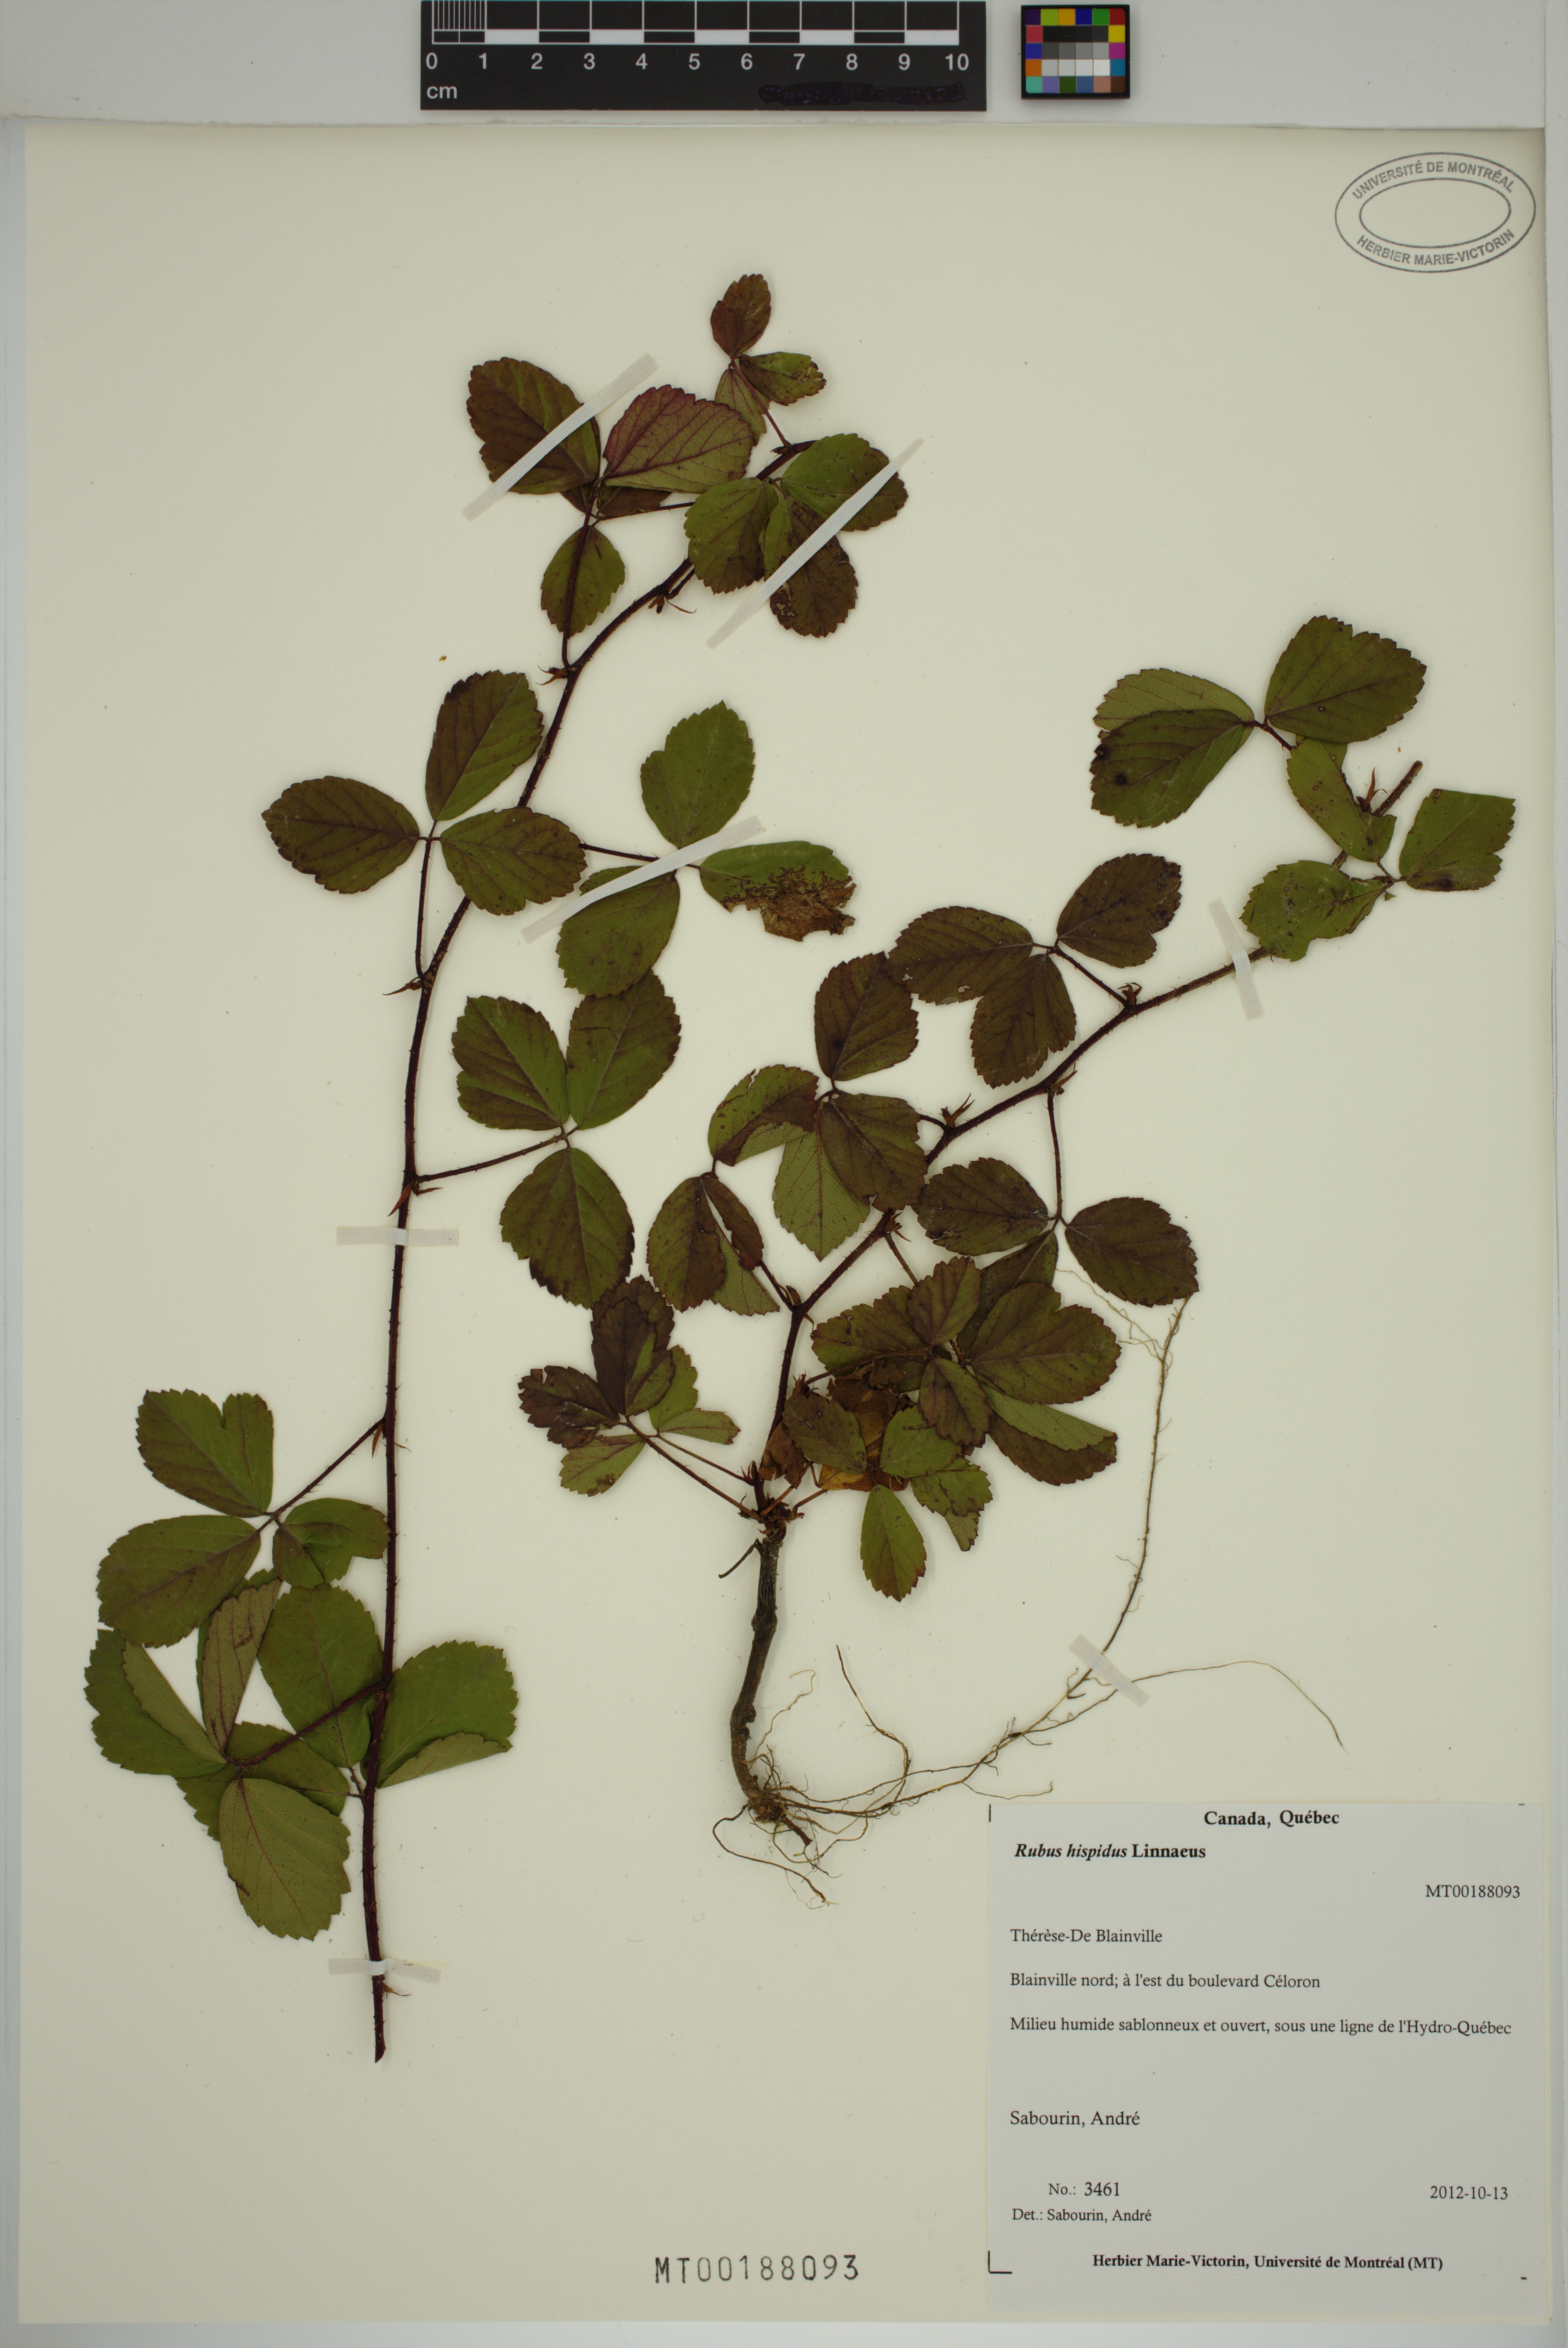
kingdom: Plantae
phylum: Tracheophyta
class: Magnoliopsida
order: Rosales
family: Rosaceae
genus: Rubus
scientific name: Rubus hispidus
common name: Running blackberry
